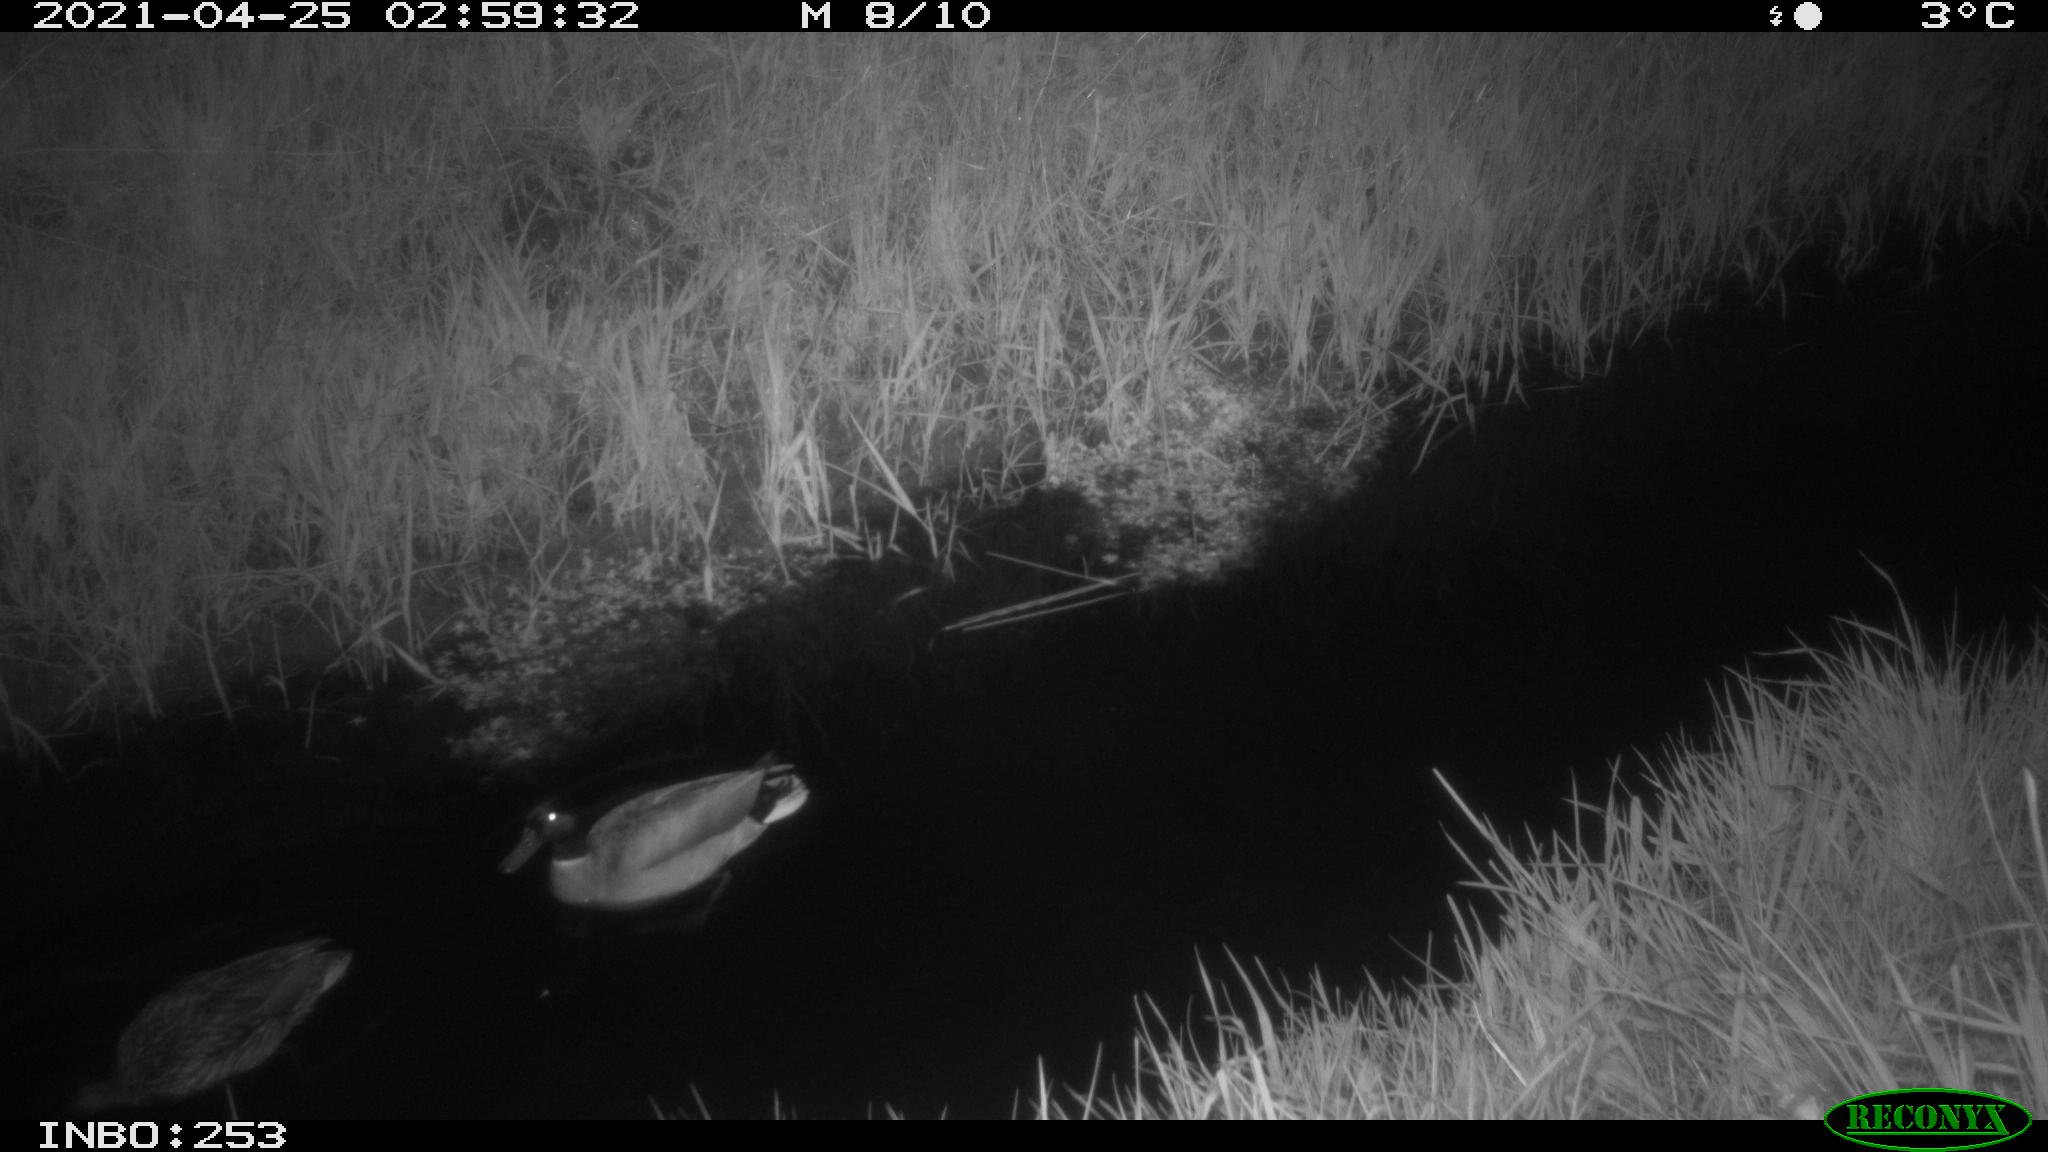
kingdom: Animalia
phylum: Chordata
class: Aves
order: Anseriformes
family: Anatidae
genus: Anas
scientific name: Anas platyrhynchos
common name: Mallard
